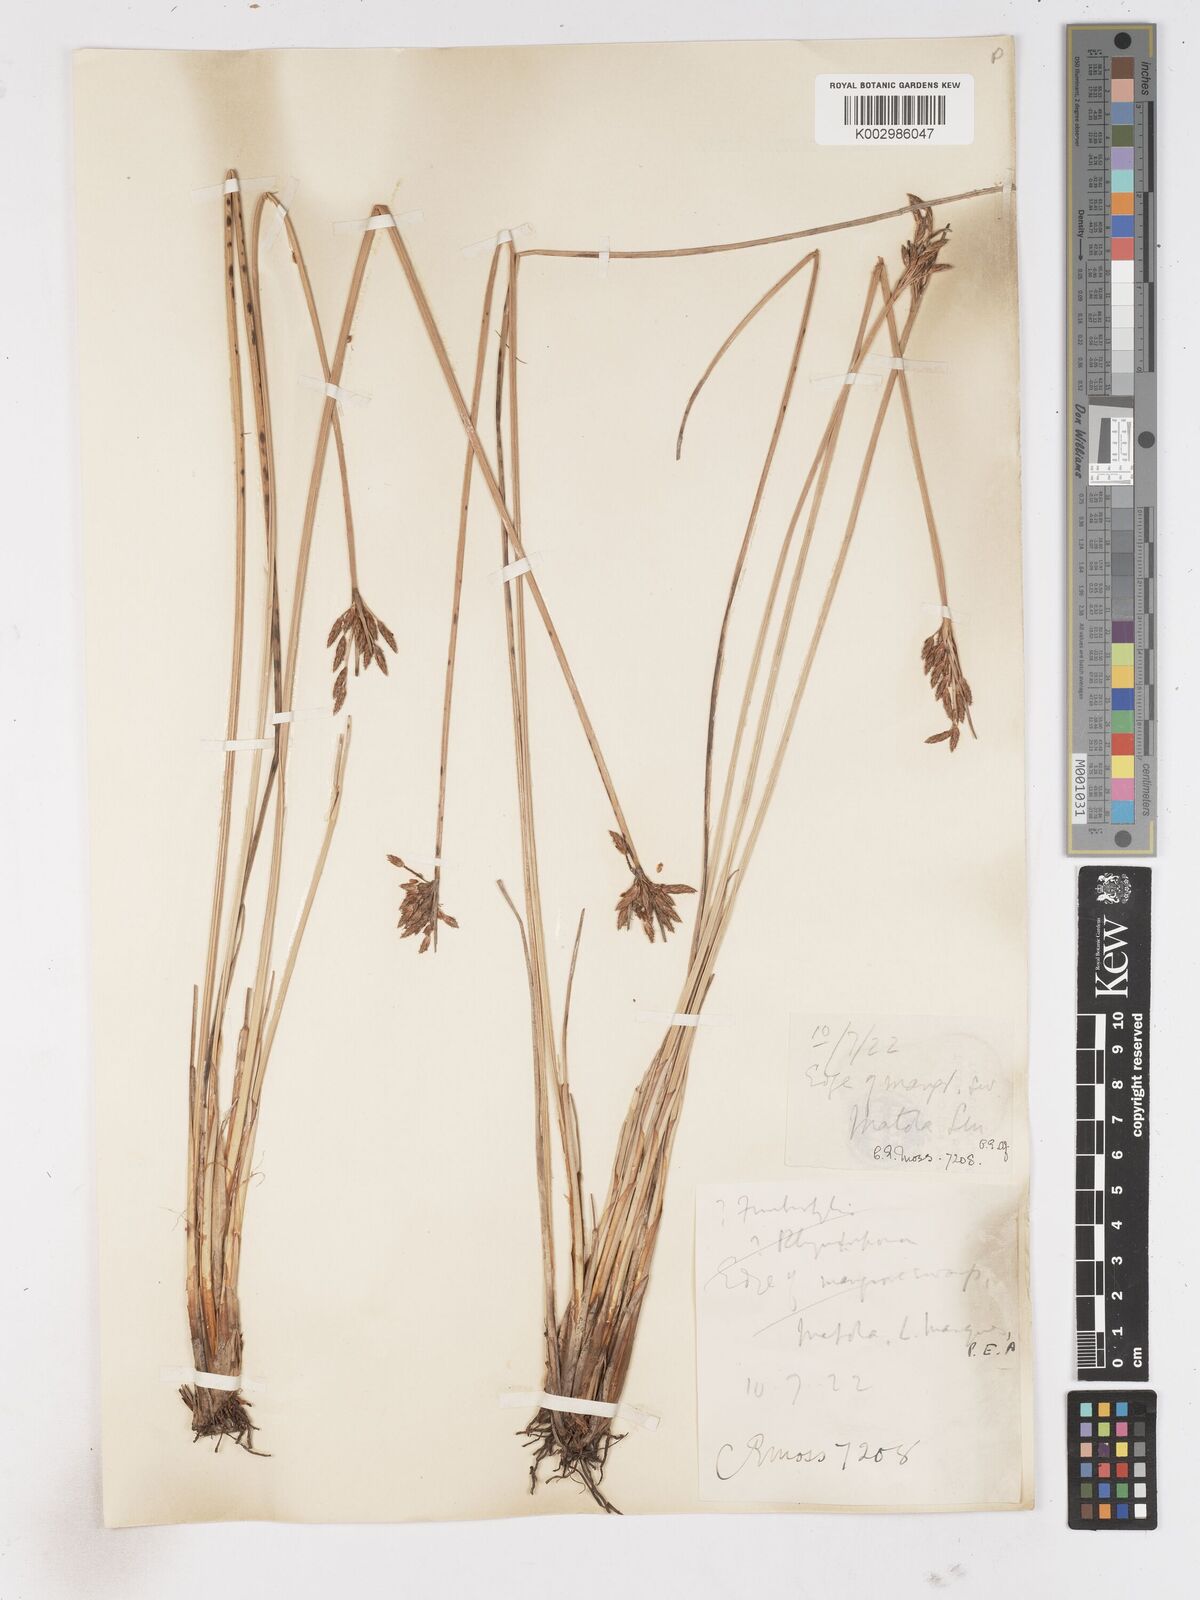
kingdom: Plantae
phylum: Tracheophyta
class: Liliopsida
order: Poales
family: Cyperaceae
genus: Fimbristylis
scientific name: Fimbristylis
